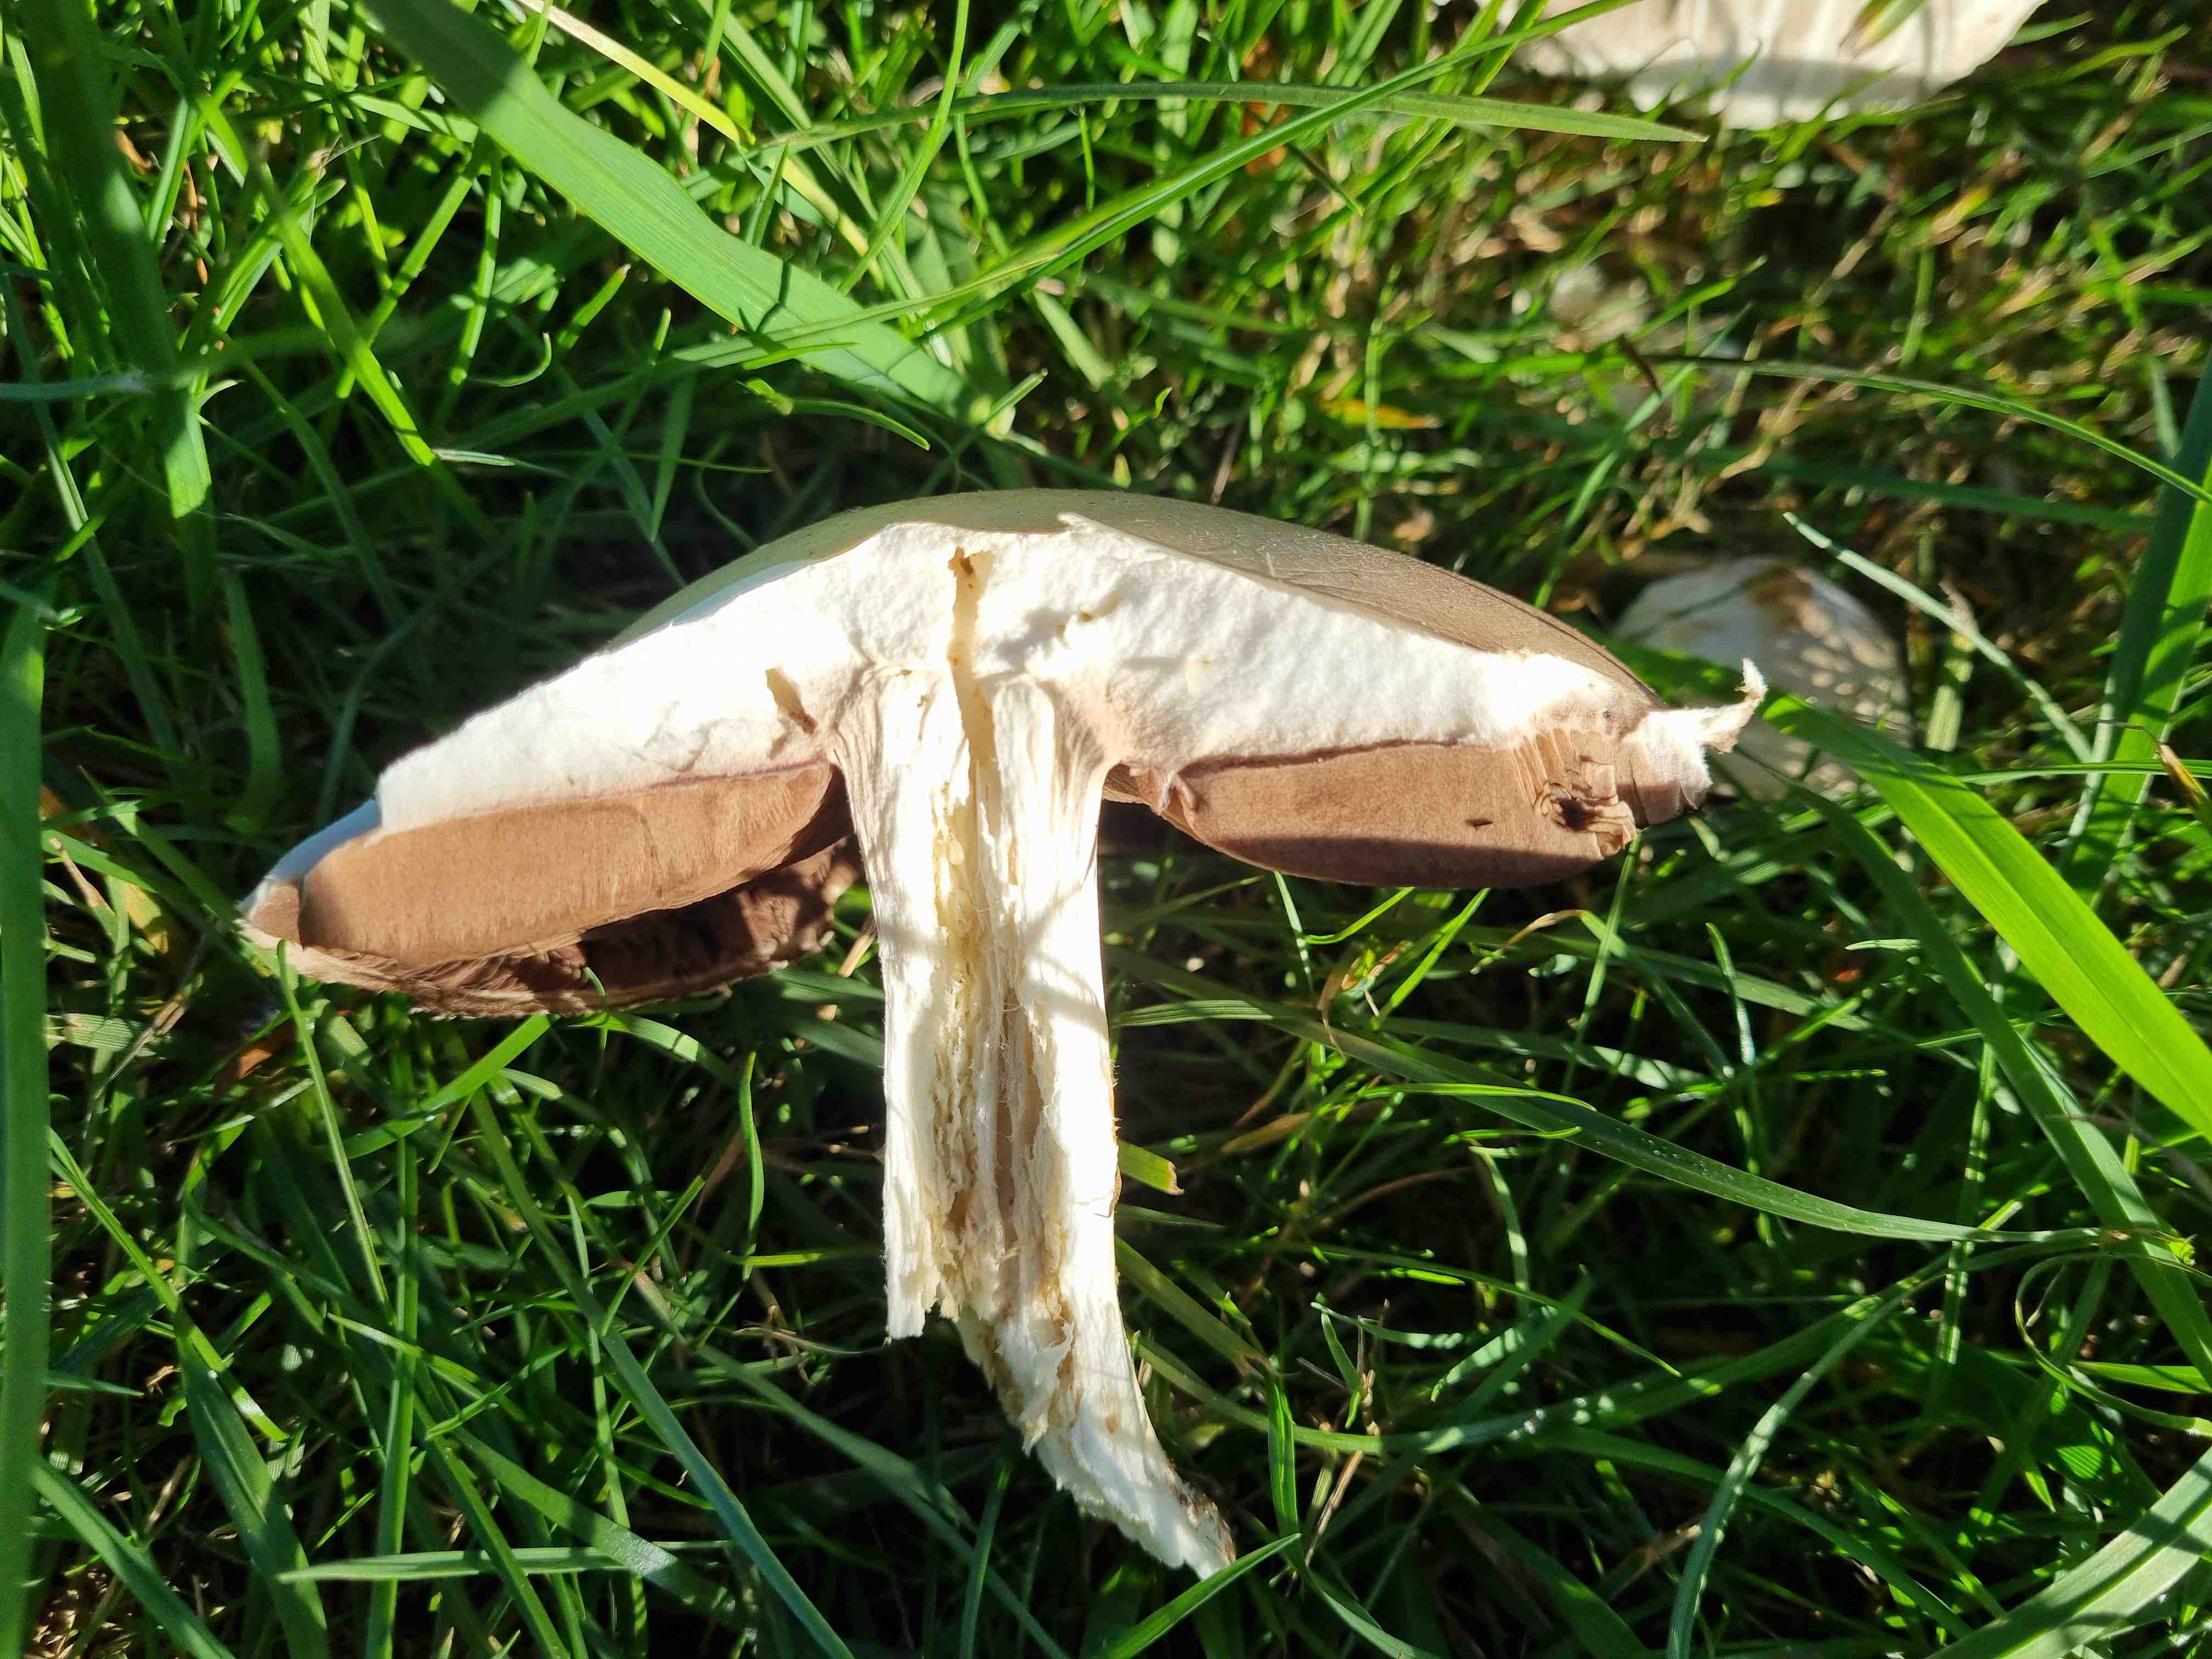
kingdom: Fungi
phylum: Basidiomycota
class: Agaricomycetes
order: Agaricales
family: Agaricaceae
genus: Agaricus
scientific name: Agaricus
